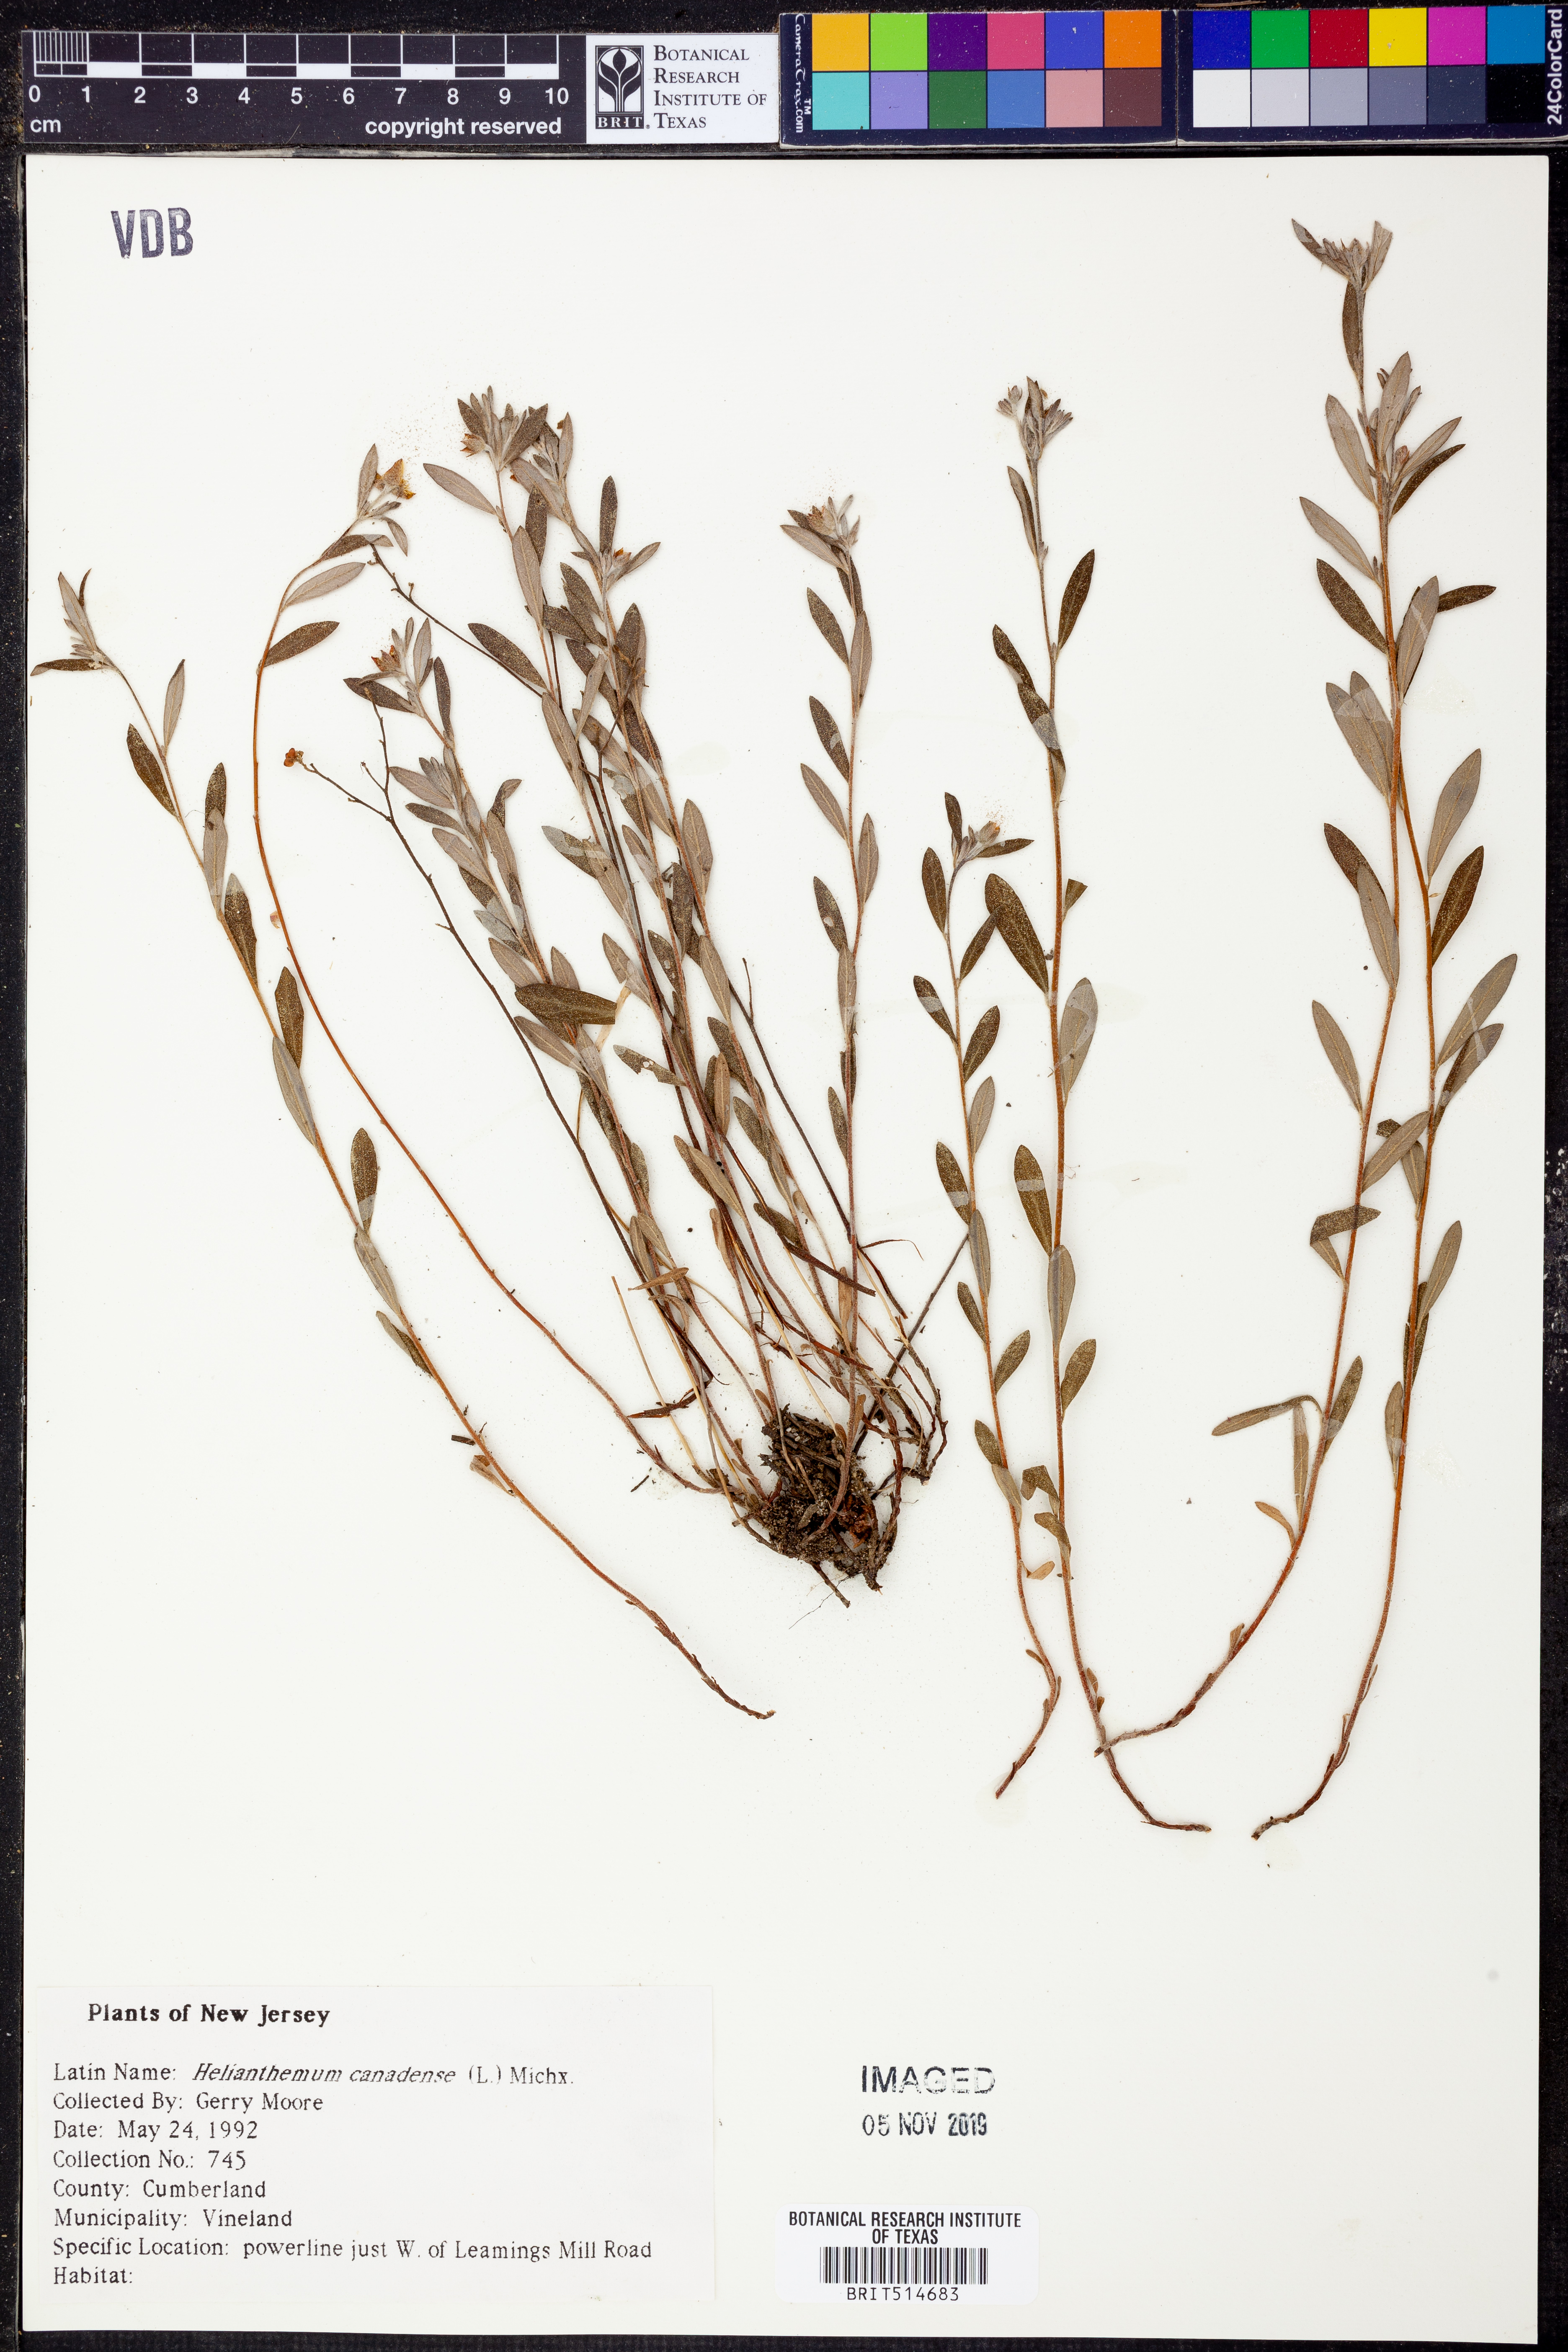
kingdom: Plantae
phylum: Tracheophyta
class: Magnoliopsida
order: Malvales
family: Cistaceae
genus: Crocanthemum
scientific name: Crocanthemum canadense
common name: Canada frostweed
